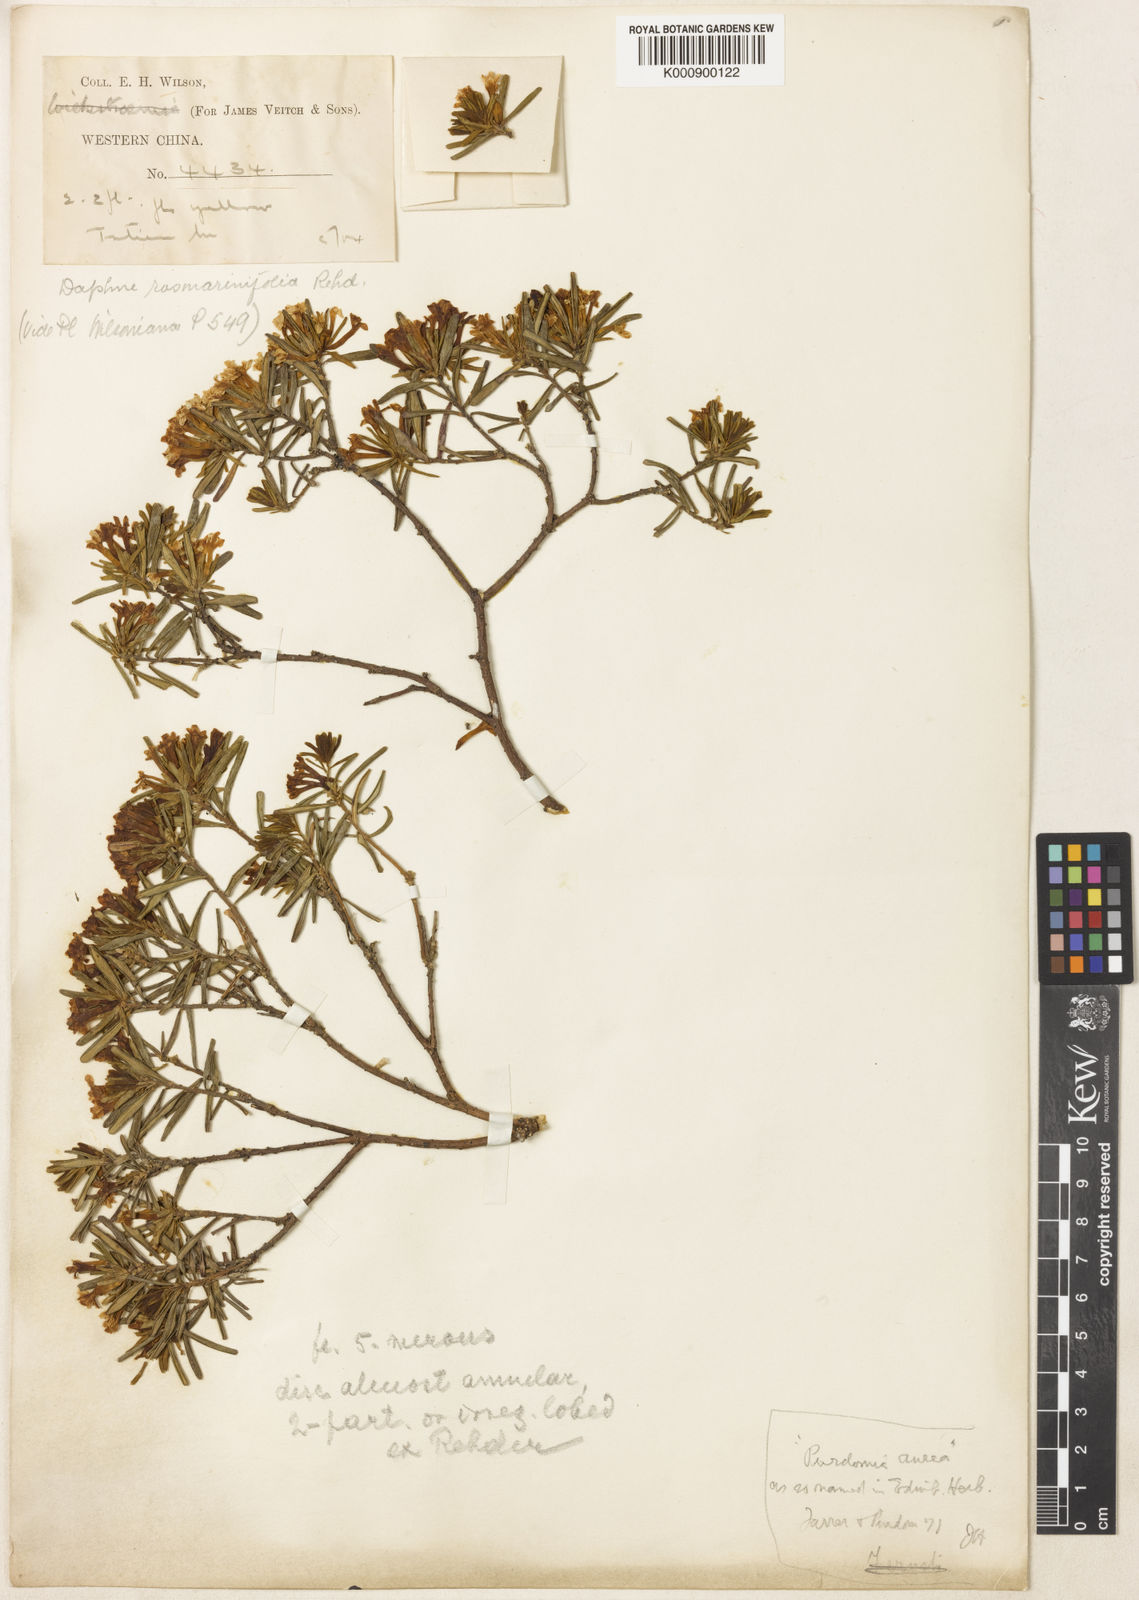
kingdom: Plantae
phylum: Tracheophyta
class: Magnoliopsida
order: Malvales
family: Thymelaeaceae
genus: Wikstroemia
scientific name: Wikstroemia rosmarinifolia
